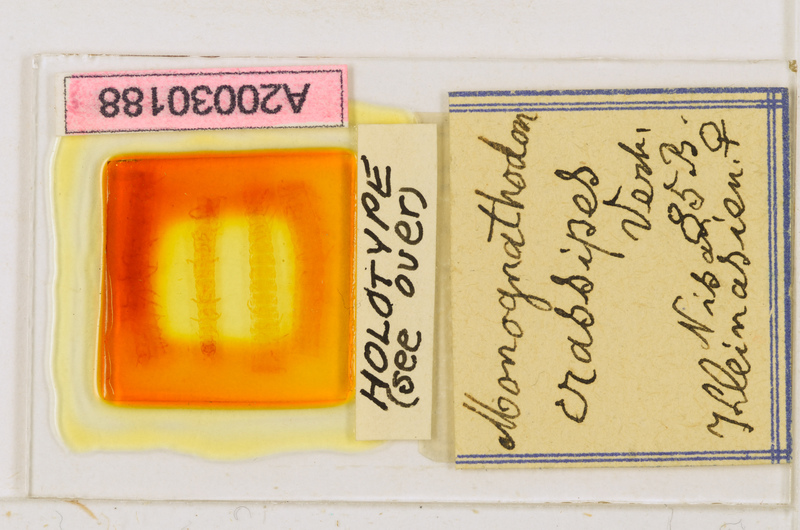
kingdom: Animalia
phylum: Arthropoda
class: Chilopoda
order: Geophilomorpha
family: Himantariidae
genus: Thracophilus
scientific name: Thracophilus
